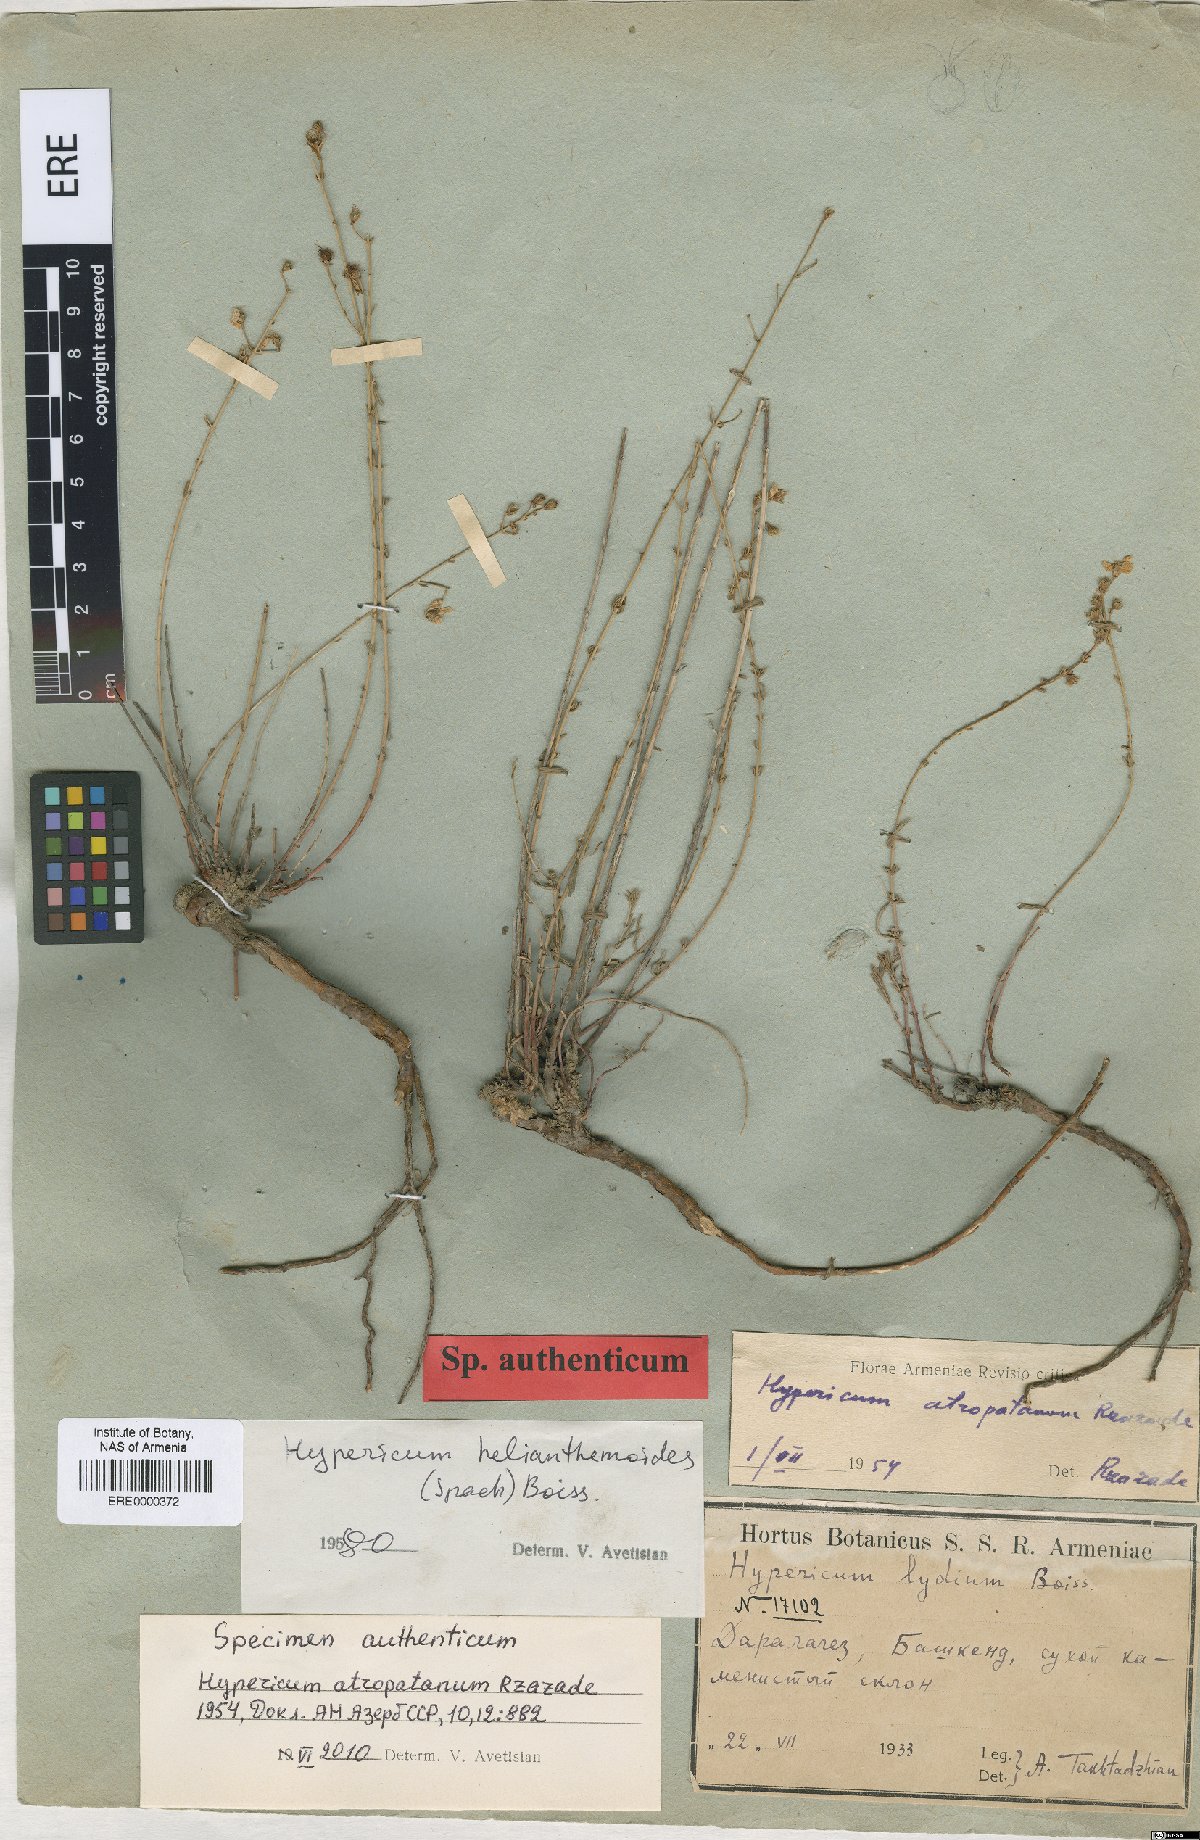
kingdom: Plantae
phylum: Tracheophyta
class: Magnoliopsida
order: Malpighiales
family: Hypericaceae
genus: Hypericum
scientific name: Hypericum helianthemoides
